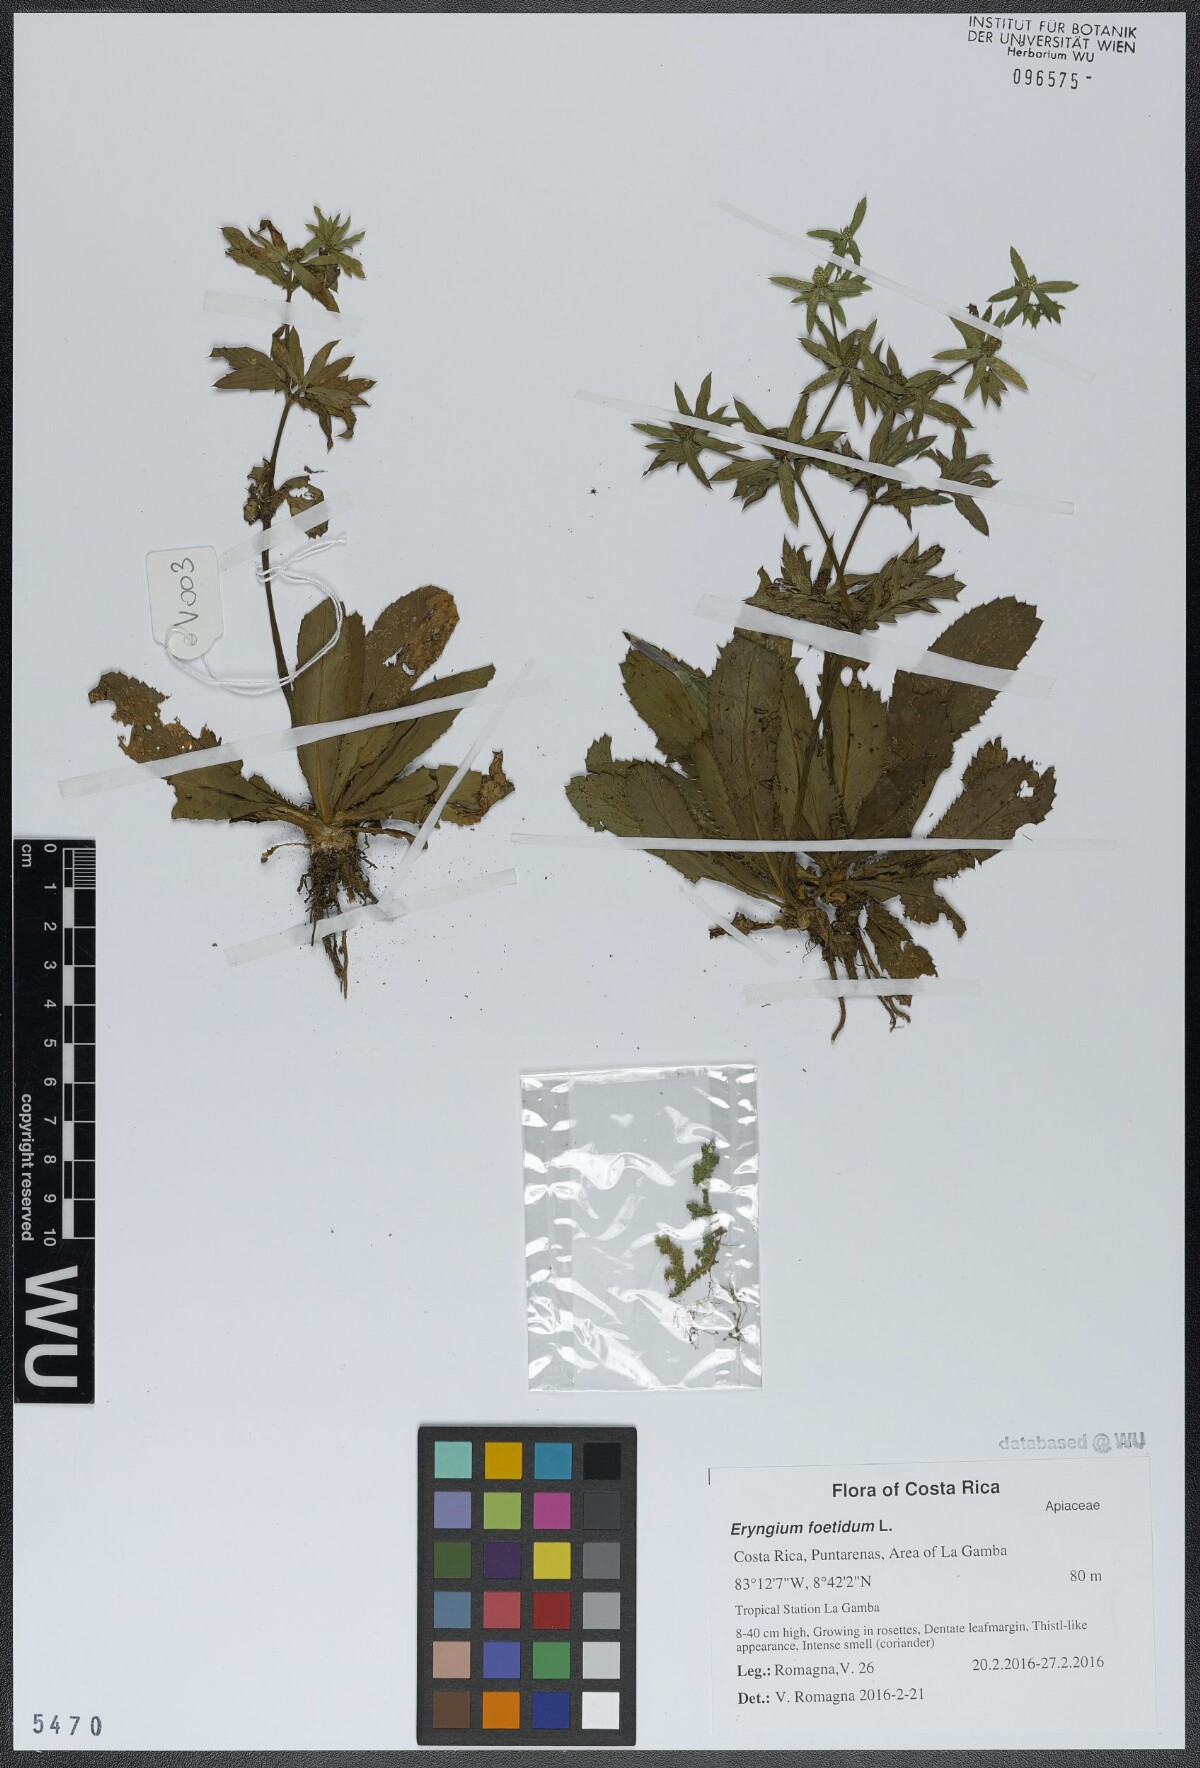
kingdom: Plantae
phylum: Tracheophyta
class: Magnoliopsida
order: Apiales
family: Apiaceae
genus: Eryngium
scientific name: Eryngium foetidum
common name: Fitweed
